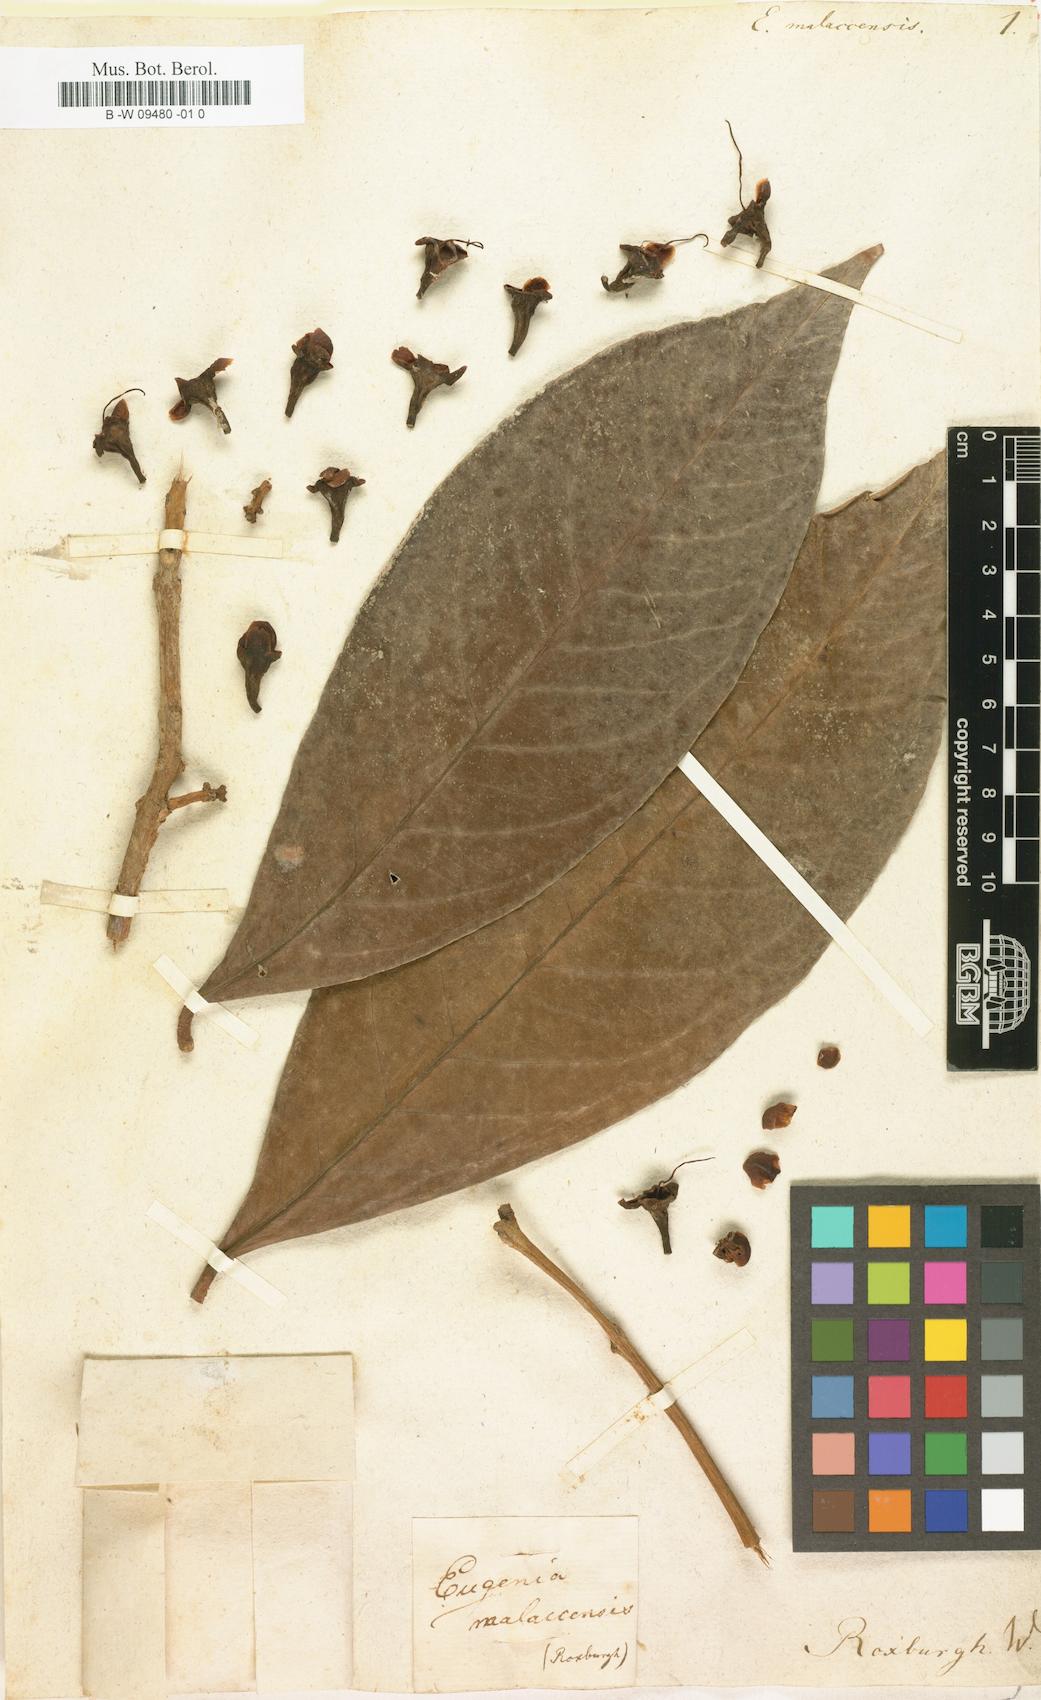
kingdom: Plantae
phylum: Tracheophyta
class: Magnoliopsida
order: Myrtales
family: Myrtaceae
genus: Syzygium
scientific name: Syzygium malaccense
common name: Malaysian apple
